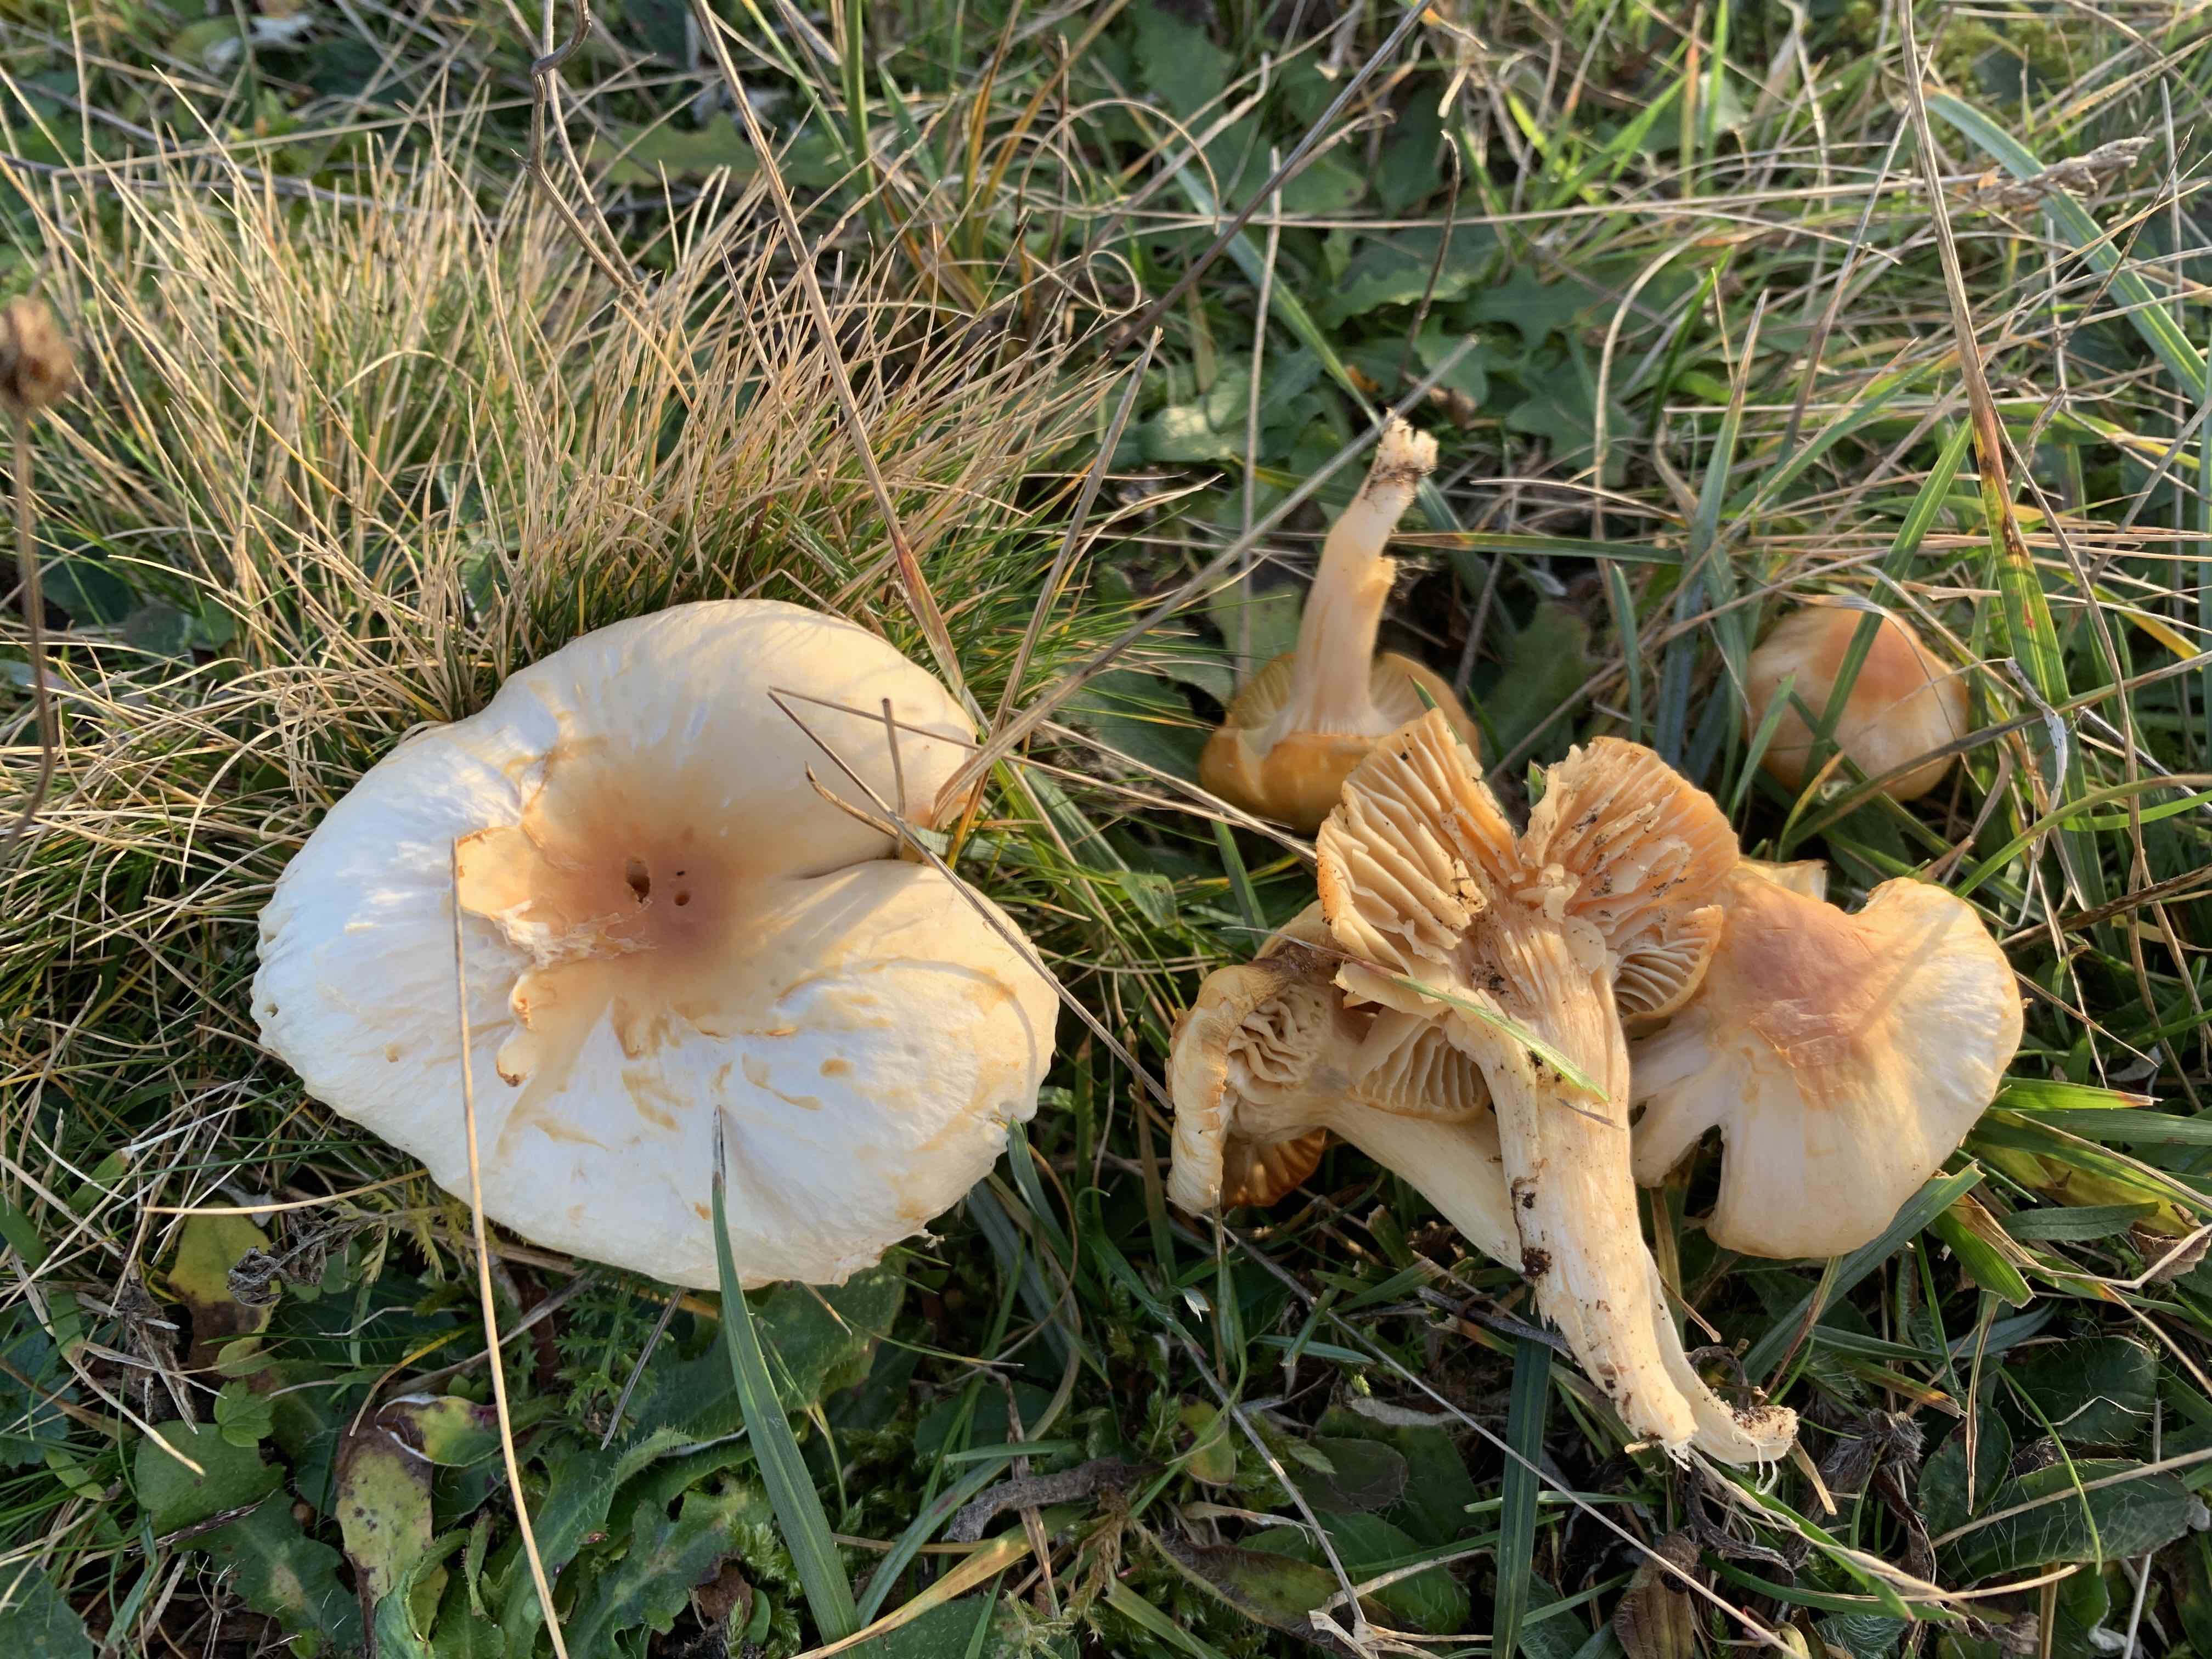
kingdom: Fungi
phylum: Basidiomycota
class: Agaricomycetes
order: Agaricales
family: Hygrophoraceae
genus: Cuphophyllus
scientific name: Cuphophyllus pratensis
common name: eng-vokshat
